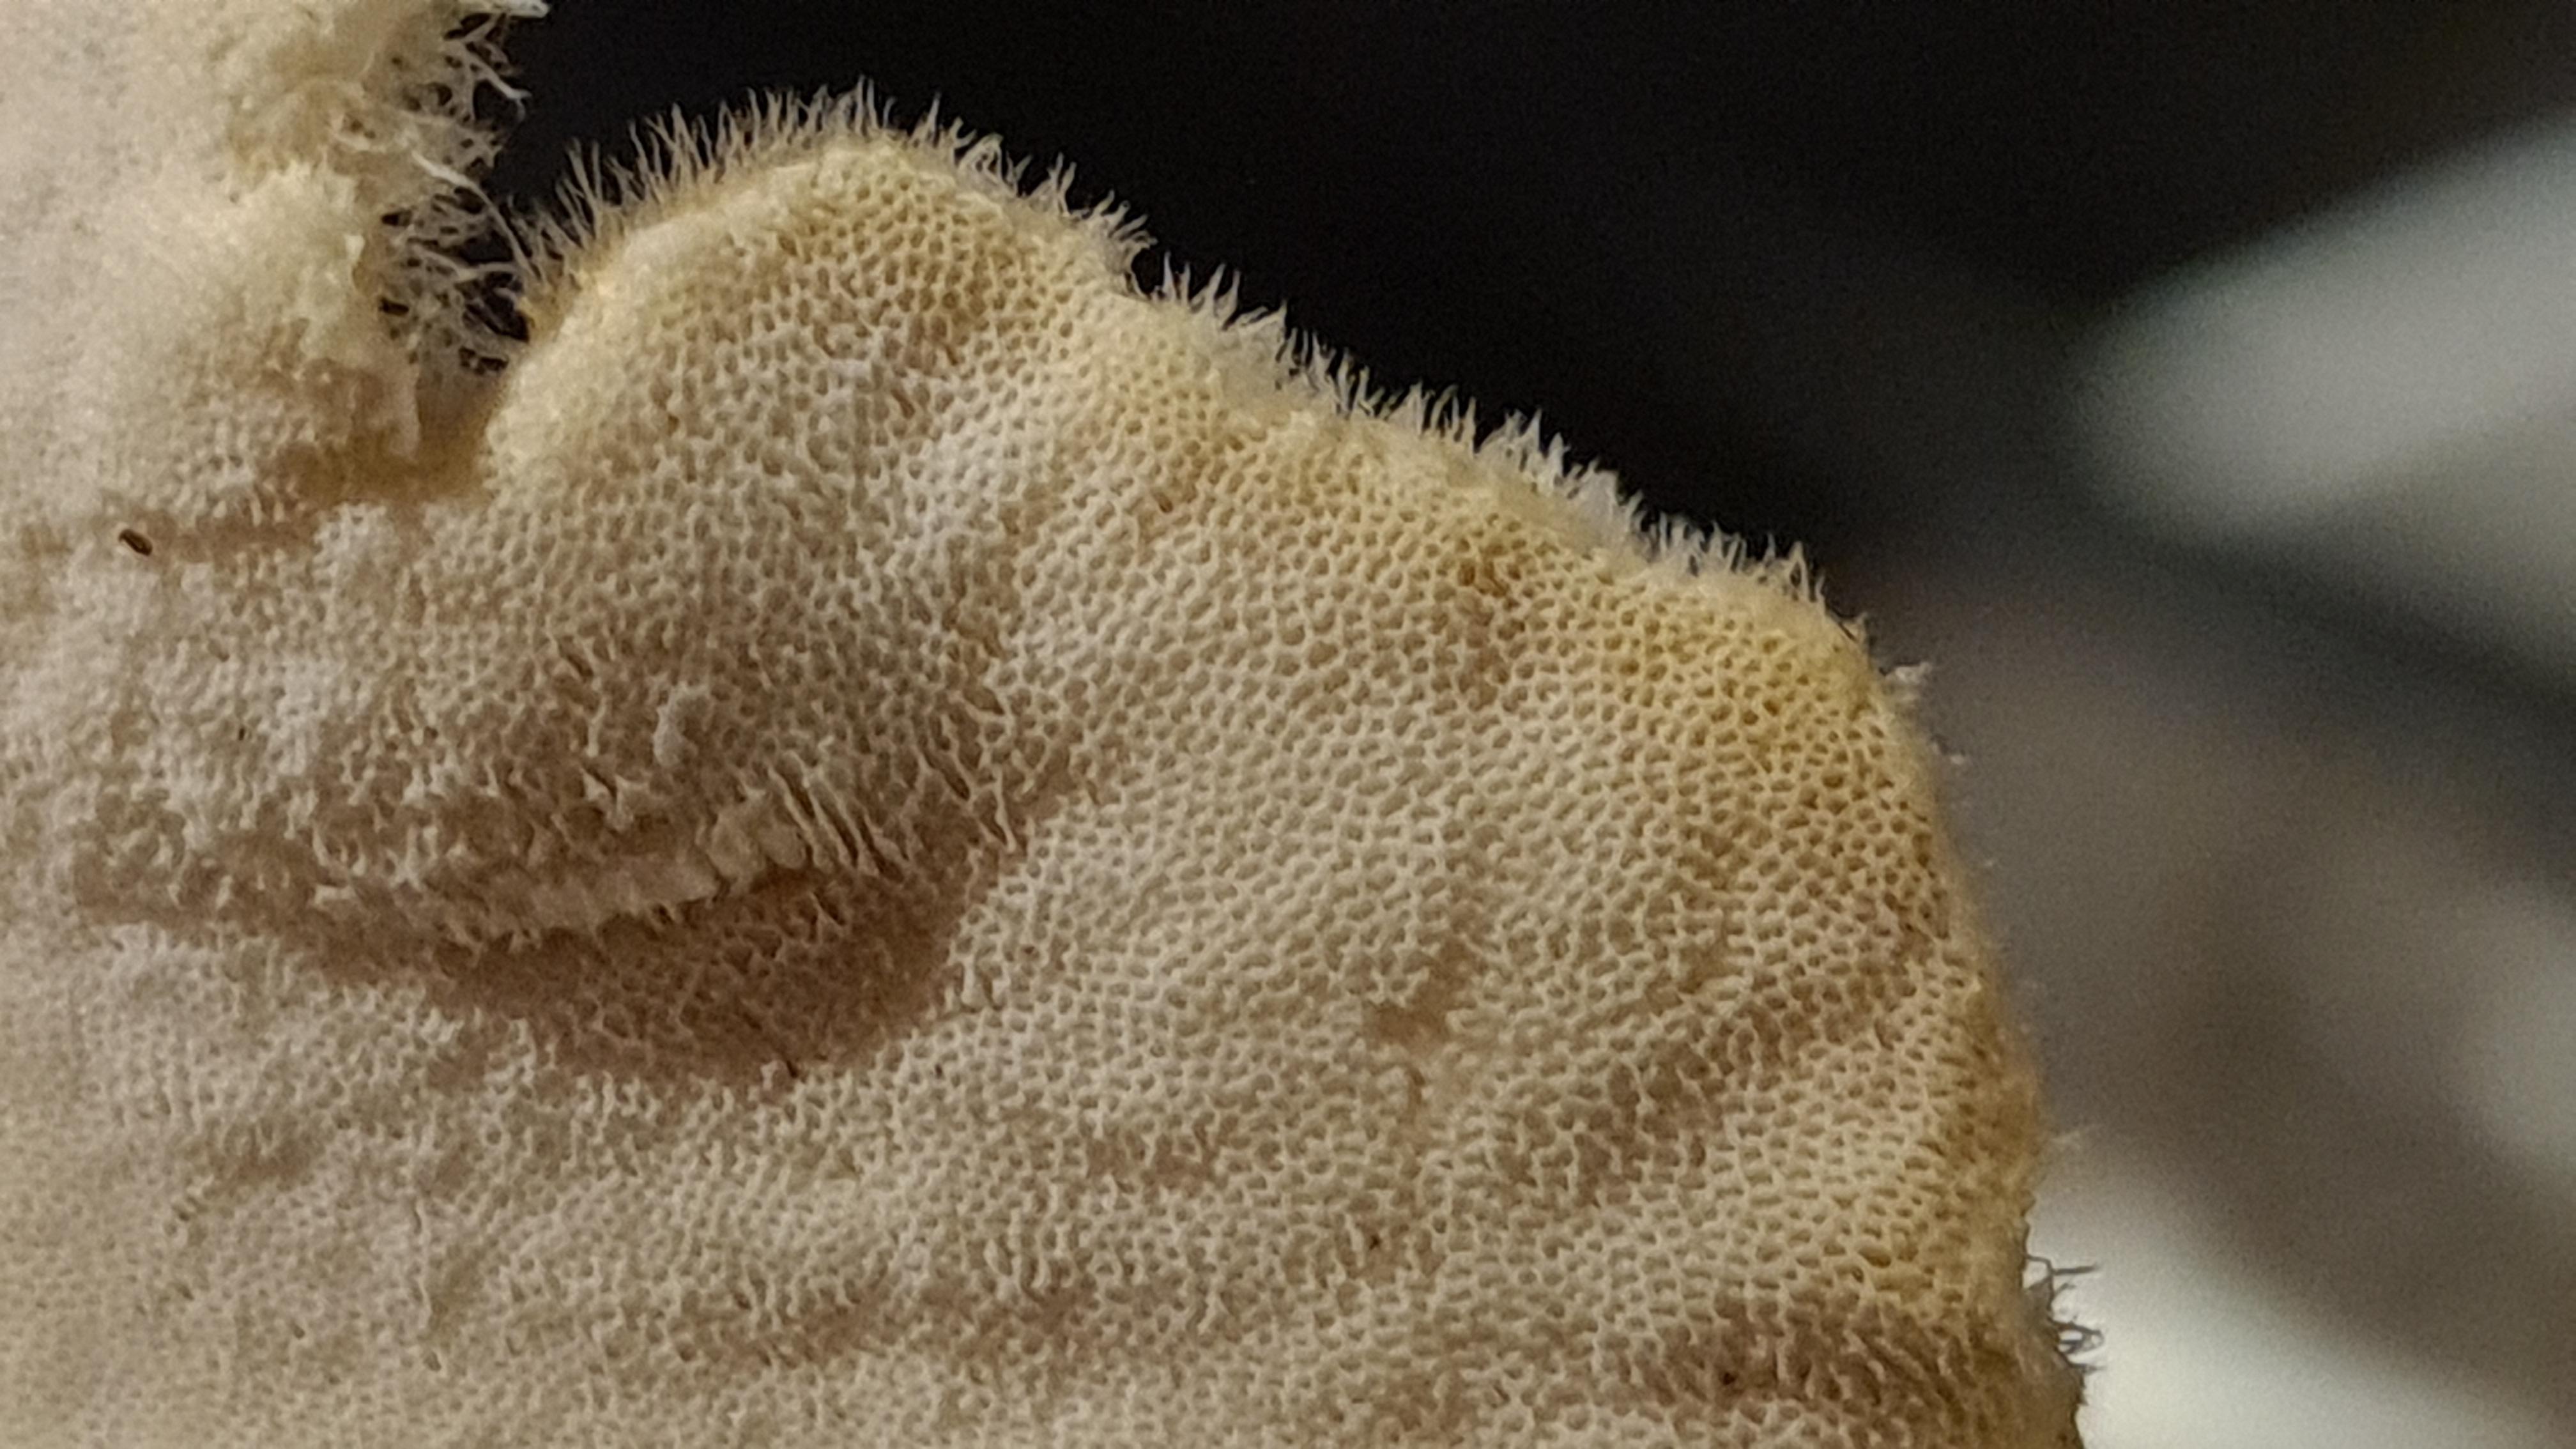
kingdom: Fungi
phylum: Basidiomycota
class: Agaricomycetes
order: Polyporales
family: Polyporaceae
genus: Lentinus
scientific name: Lentinus substrictus
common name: forårs-stilkporesvamp
